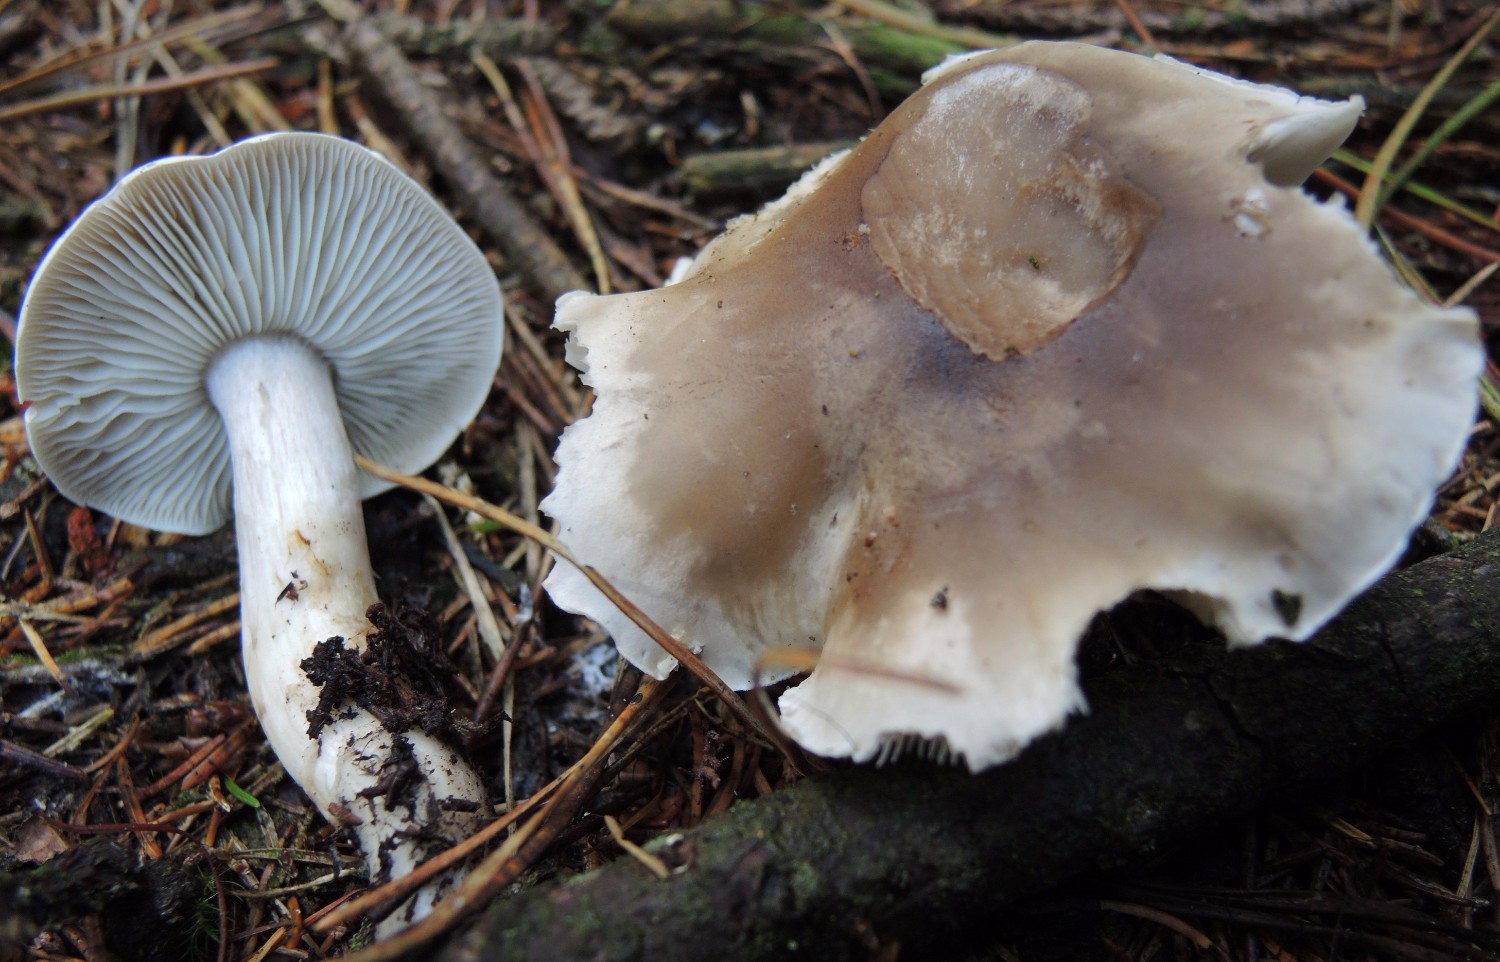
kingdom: Fungi
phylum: Basidiomycota
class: Agaricomycetes
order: Agaricales
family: Tricholomataceae
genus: Tricholoma
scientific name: Tricholoma saponaceum
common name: Soapy trich
